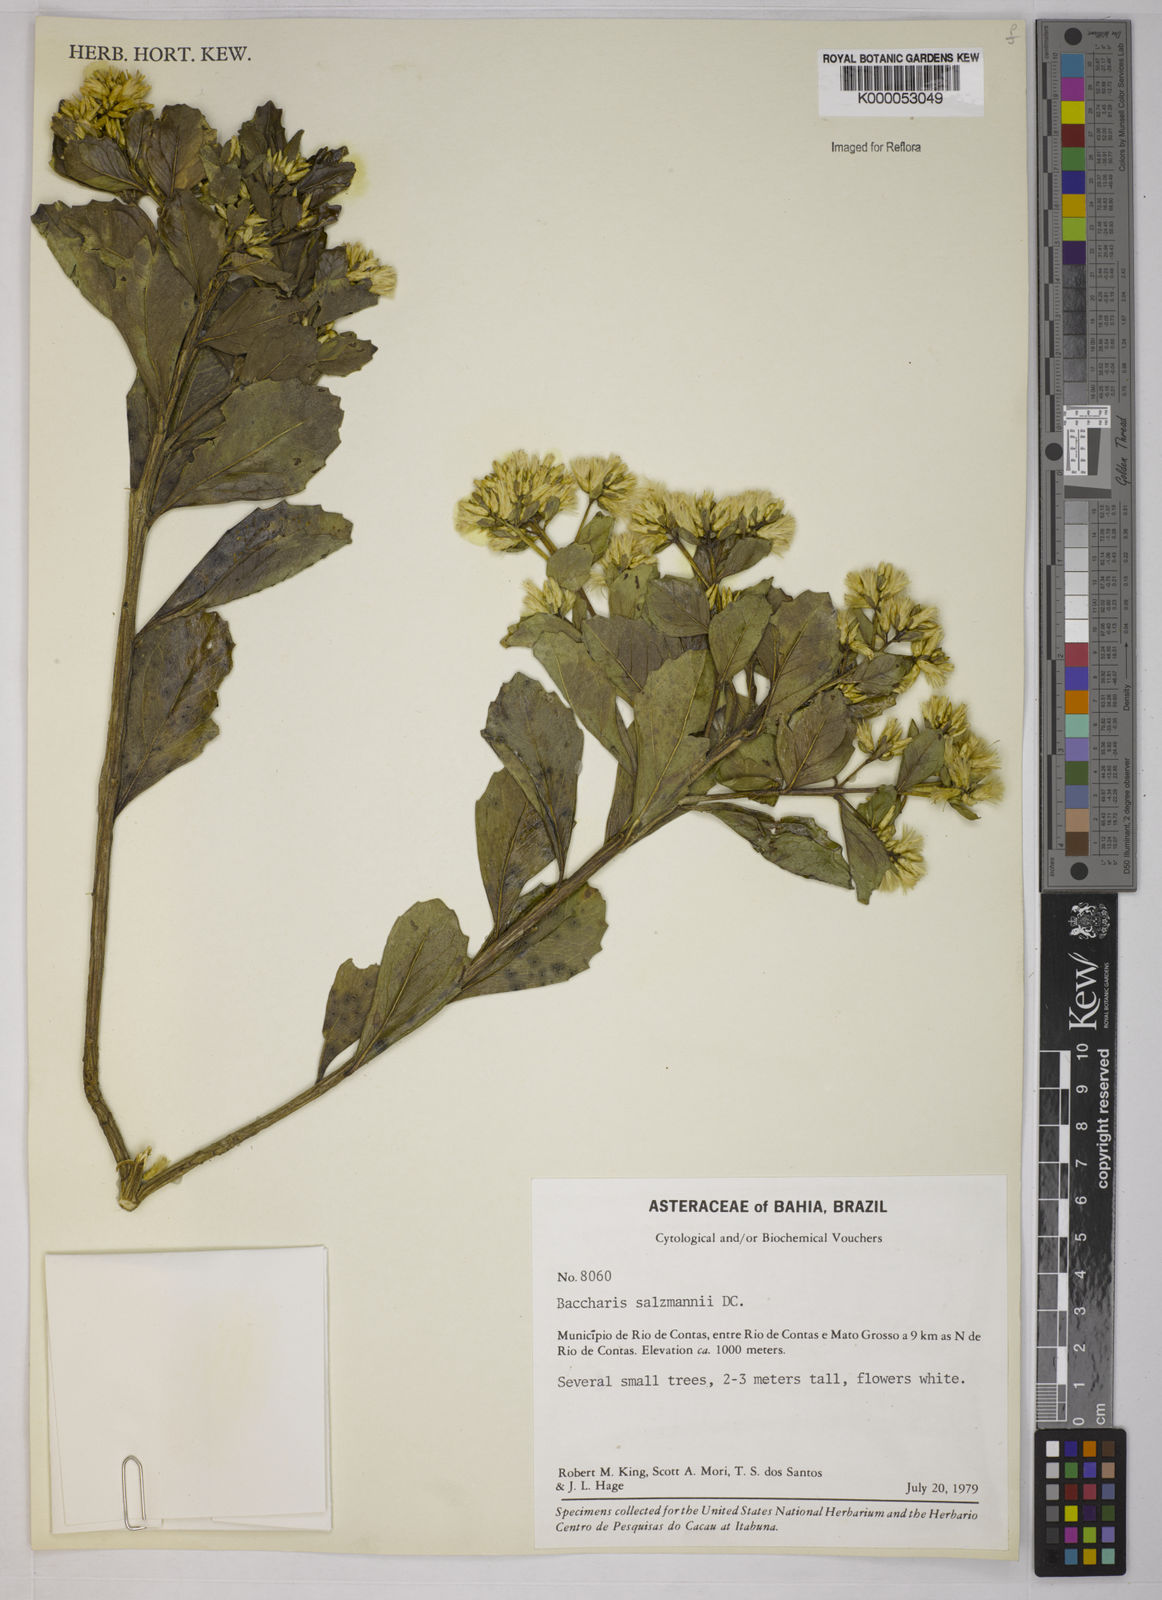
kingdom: Plantae
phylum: Tracheophyta
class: Magnoliopsida
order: Asterales
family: Asteraceae
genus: Baccharis
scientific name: Baccharis retusa
